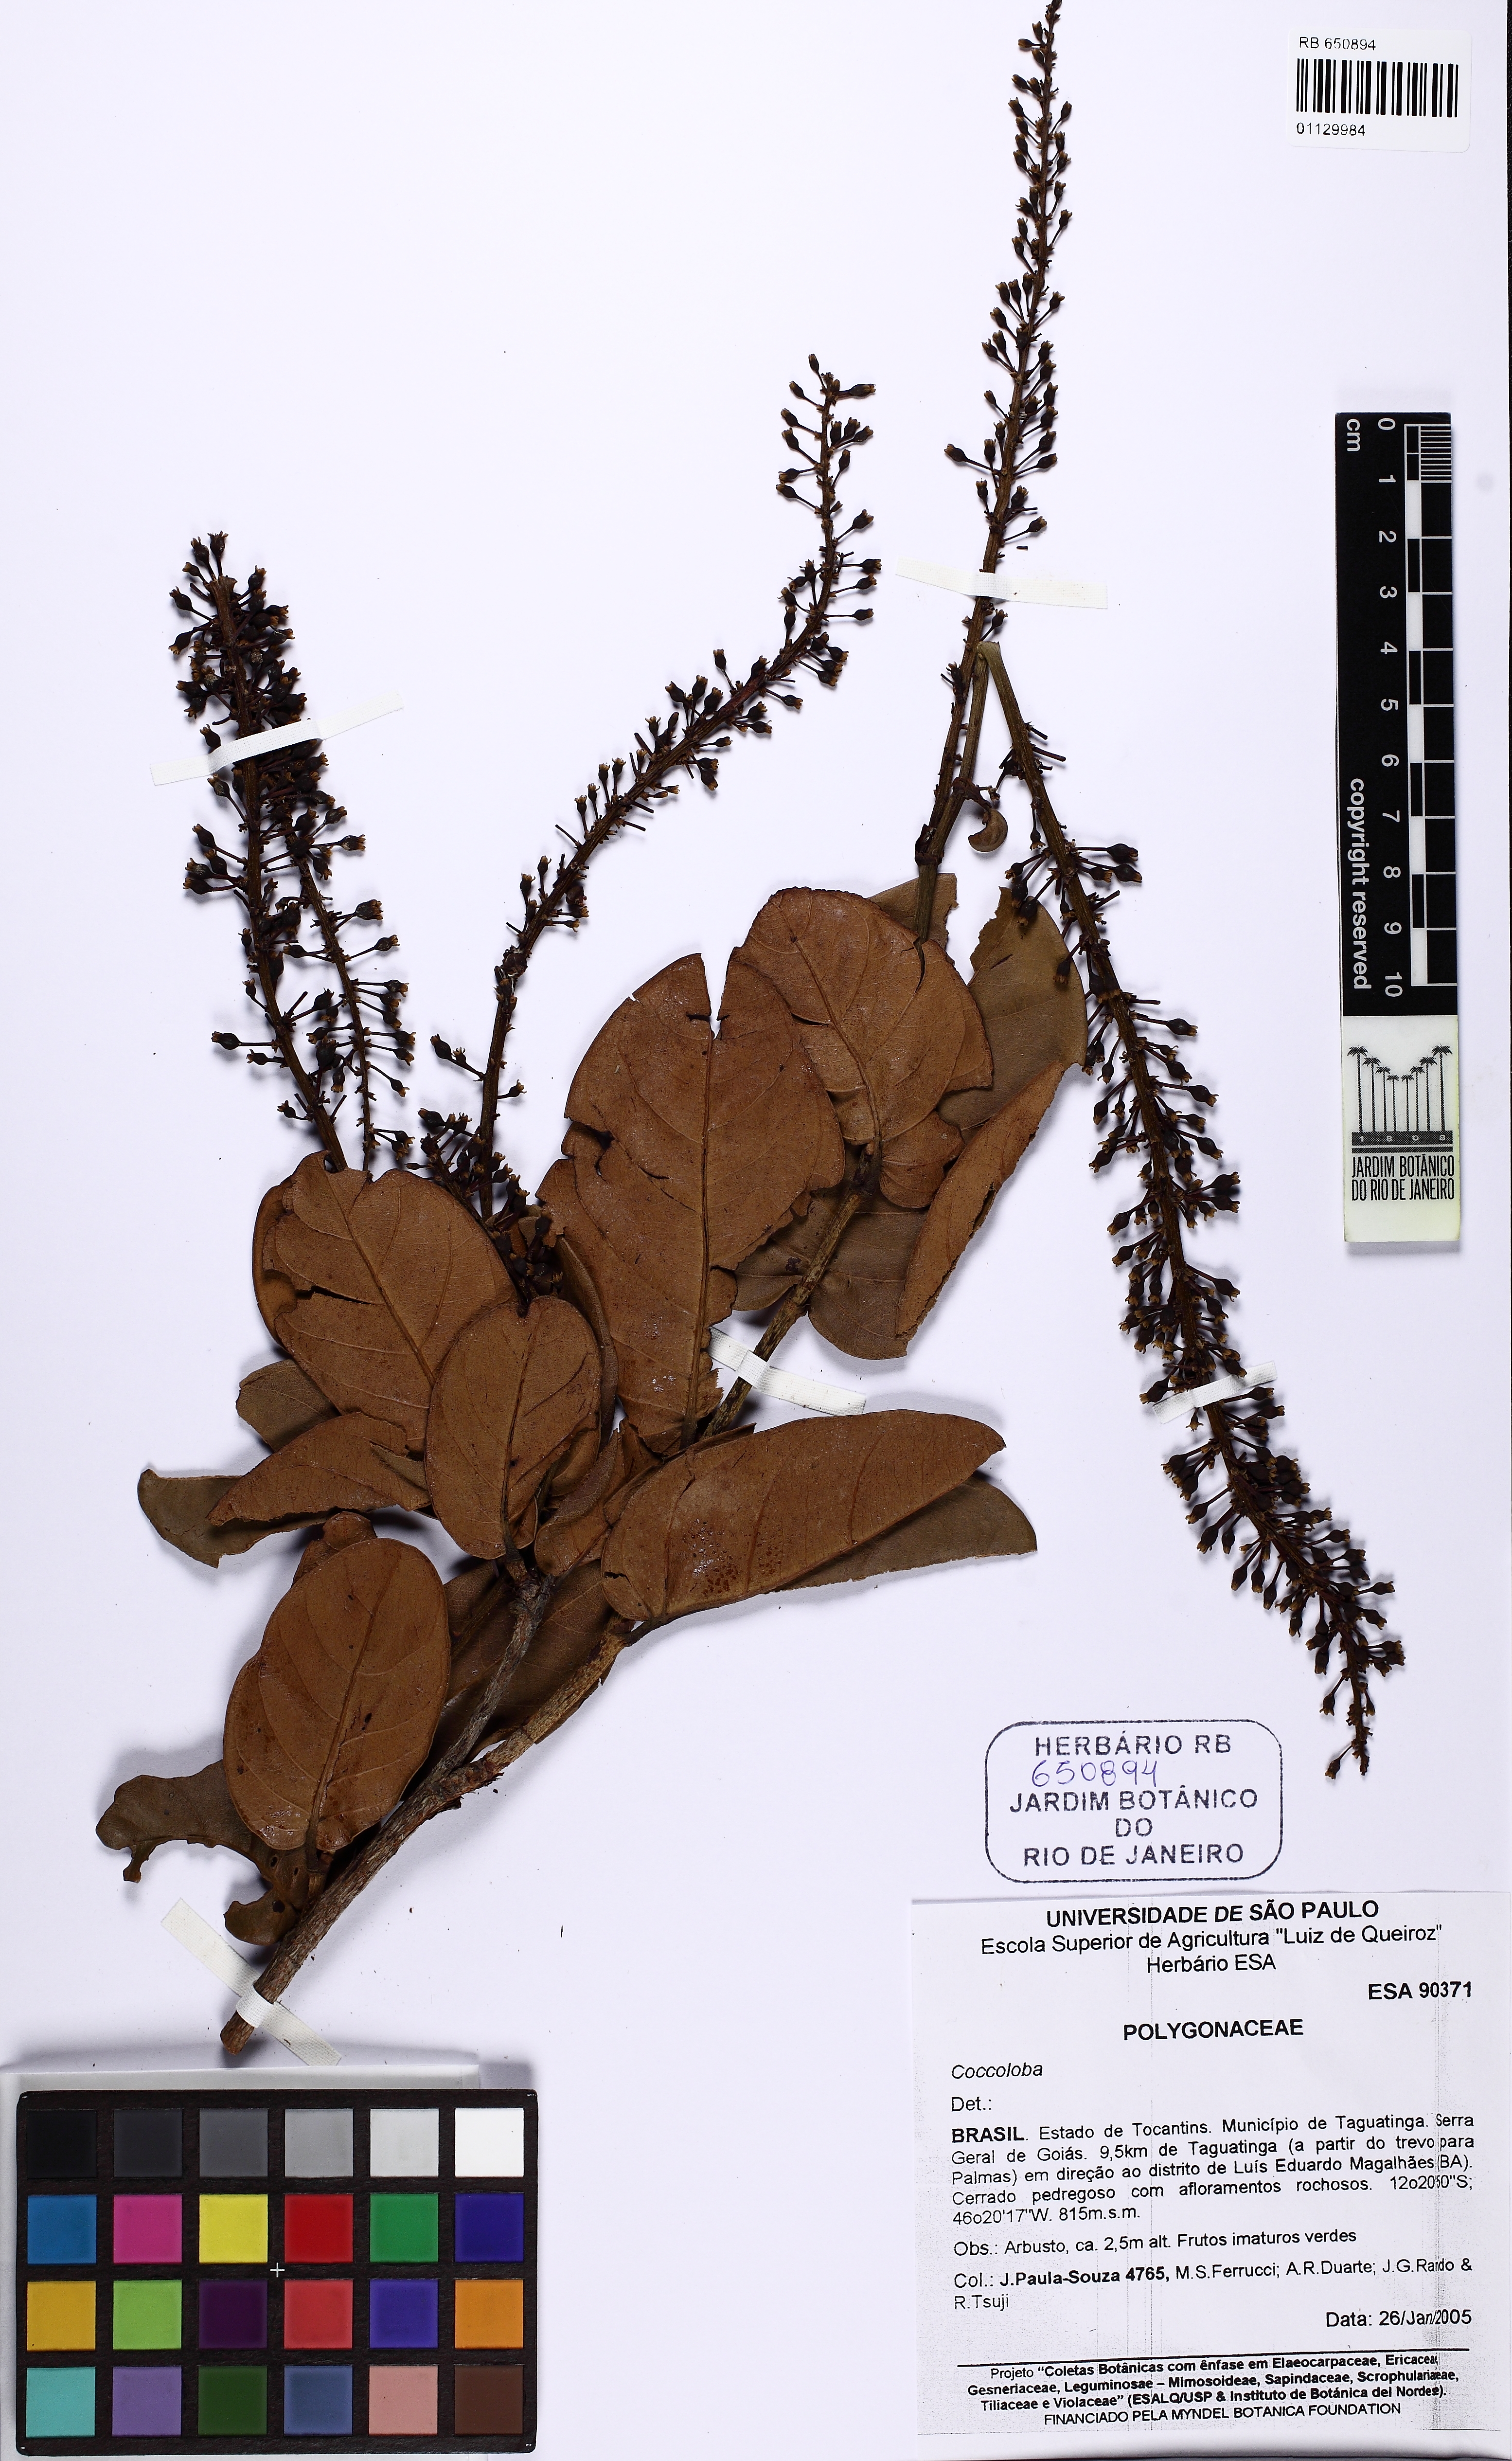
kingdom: Plantae
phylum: Tracheophyta
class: Magnoliopsida
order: Caryophyllales
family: Polygonaceae
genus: Coccoloba
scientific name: Coccoloba
